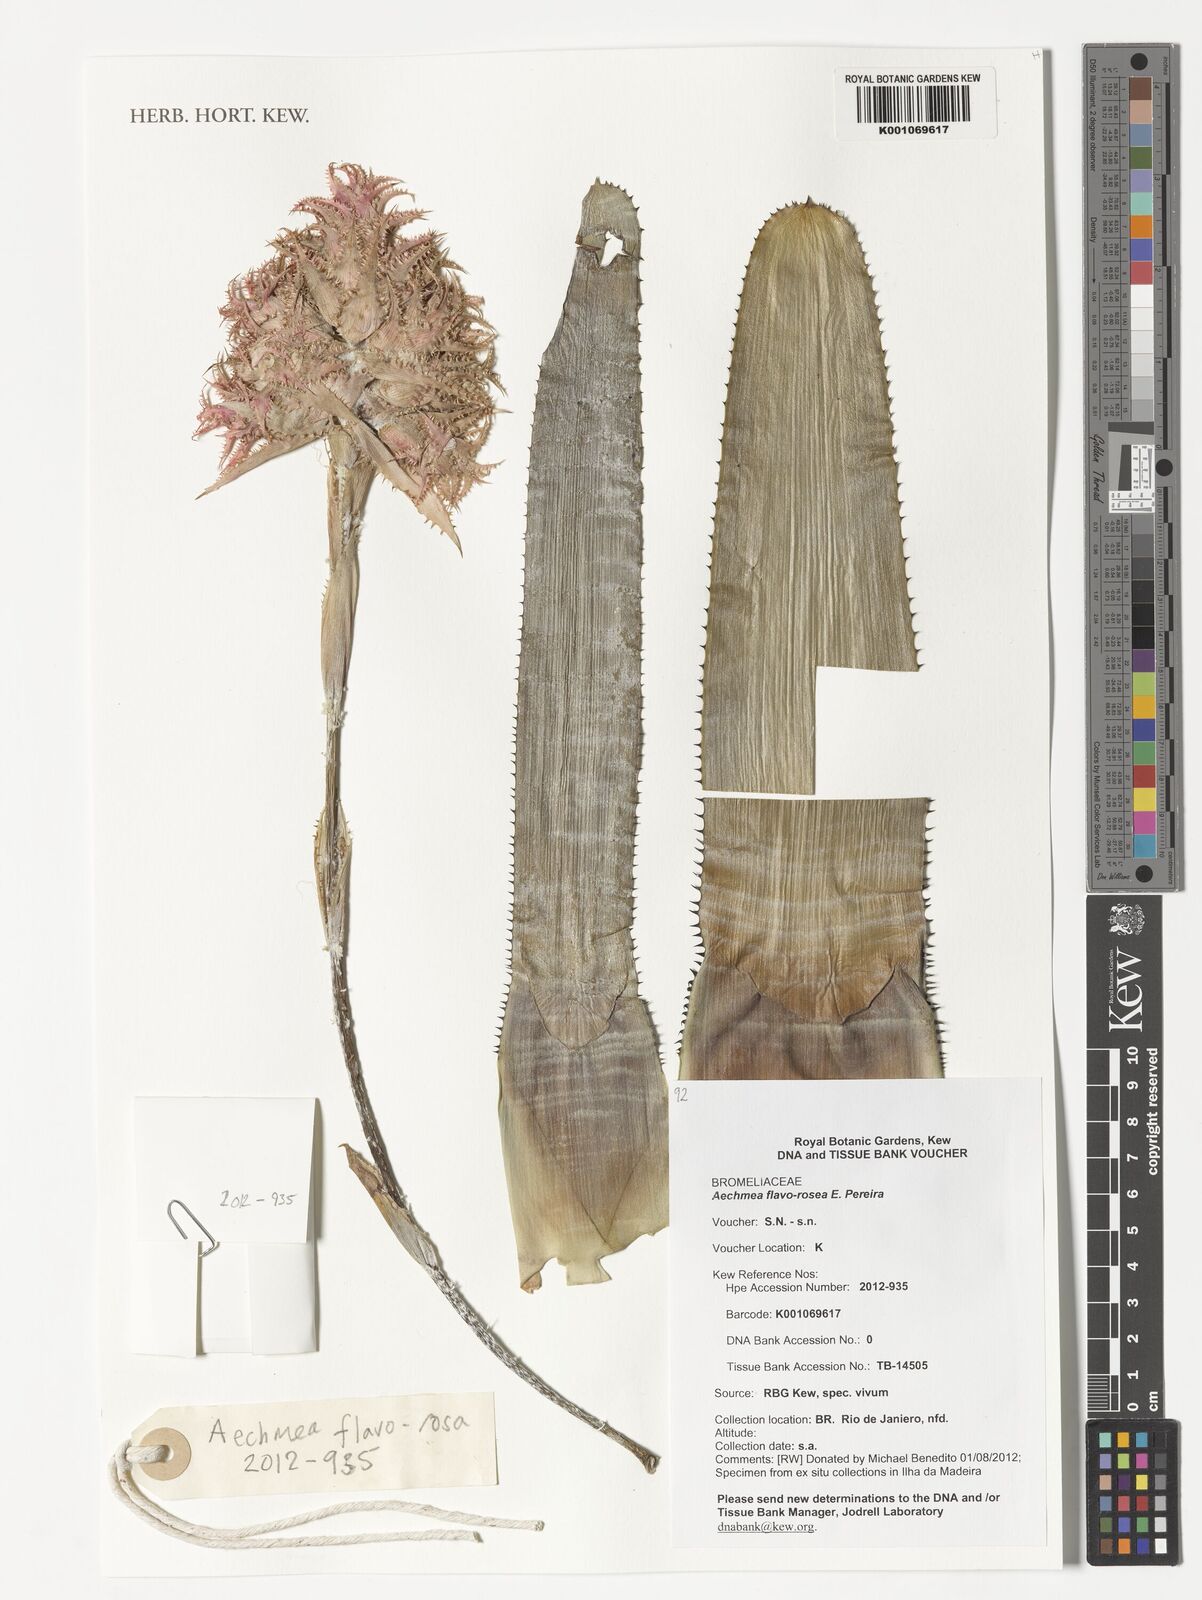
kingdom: Plantae
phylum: Tracheophyta
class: Liliopsida
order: Poales
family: Bromeliaceae
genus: Aechmea
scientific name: Aechmea flavorosea
